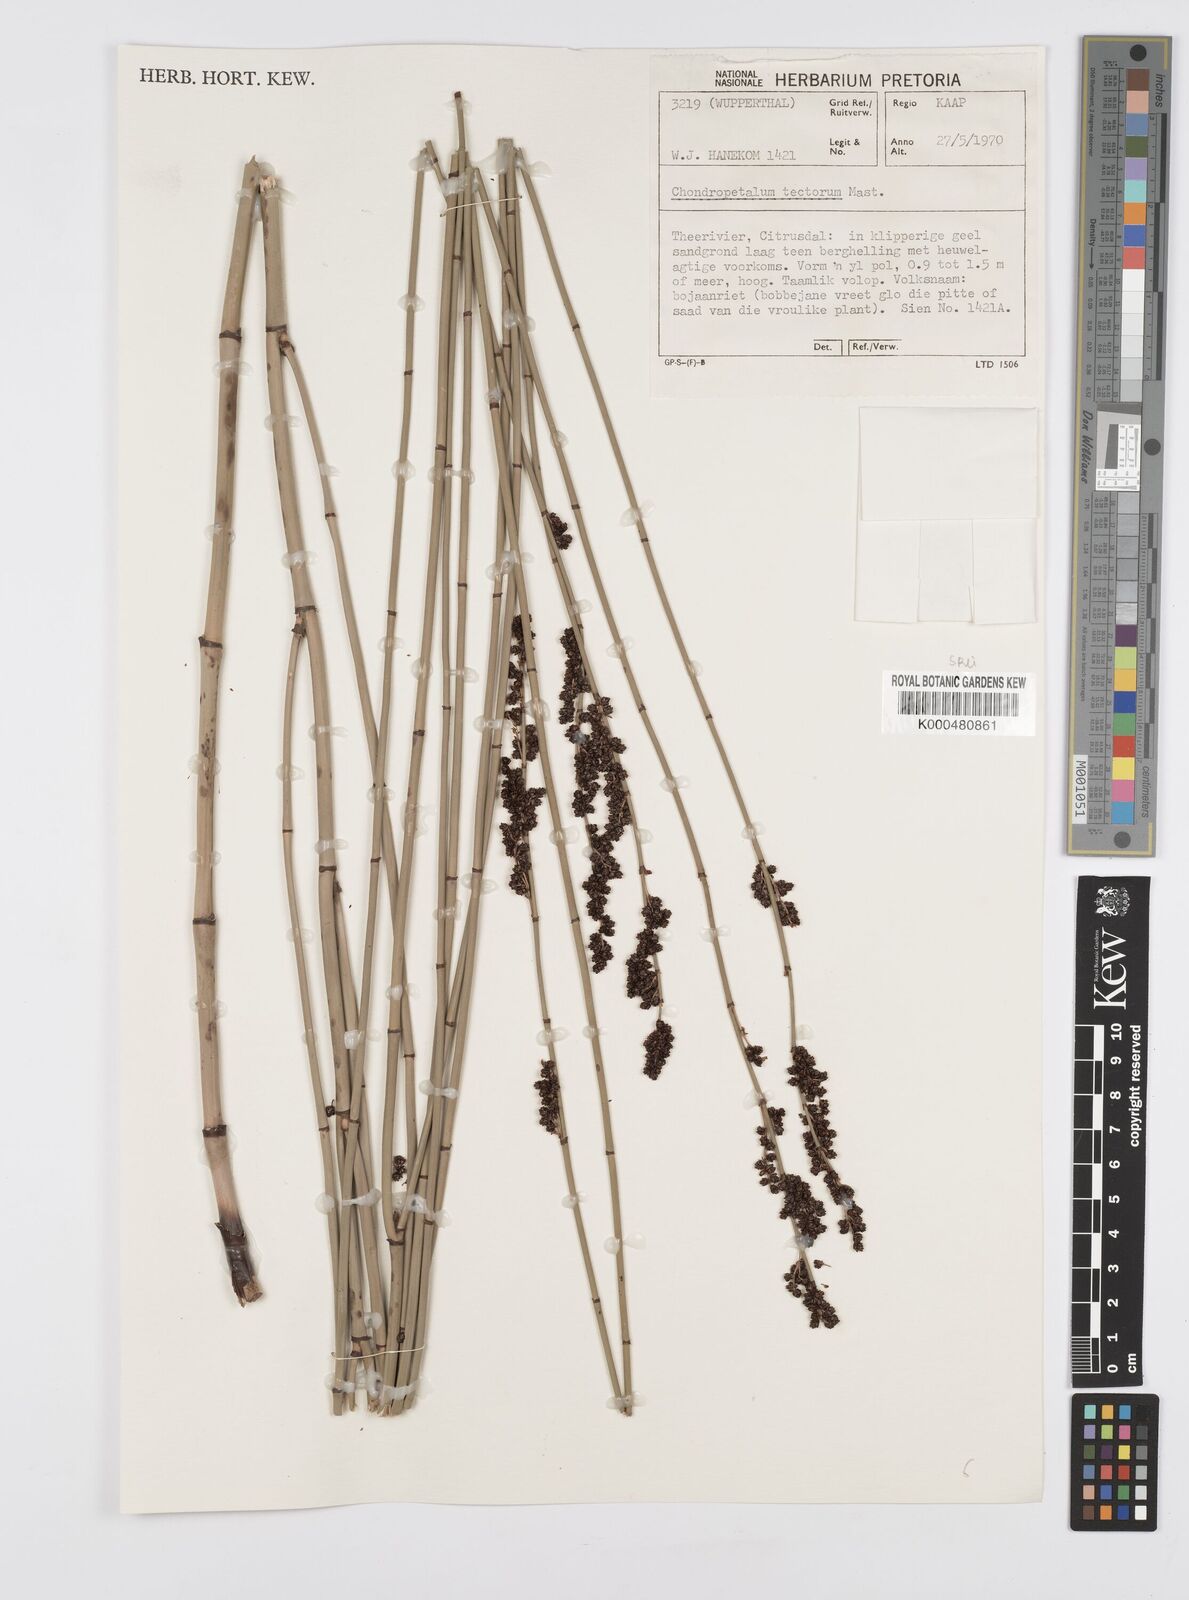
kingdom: Plantae
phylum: Tracheophyta
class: Liliopsida
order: Poales
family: Restionaceae
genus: Elegia
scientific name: Elegia macrocarpa
